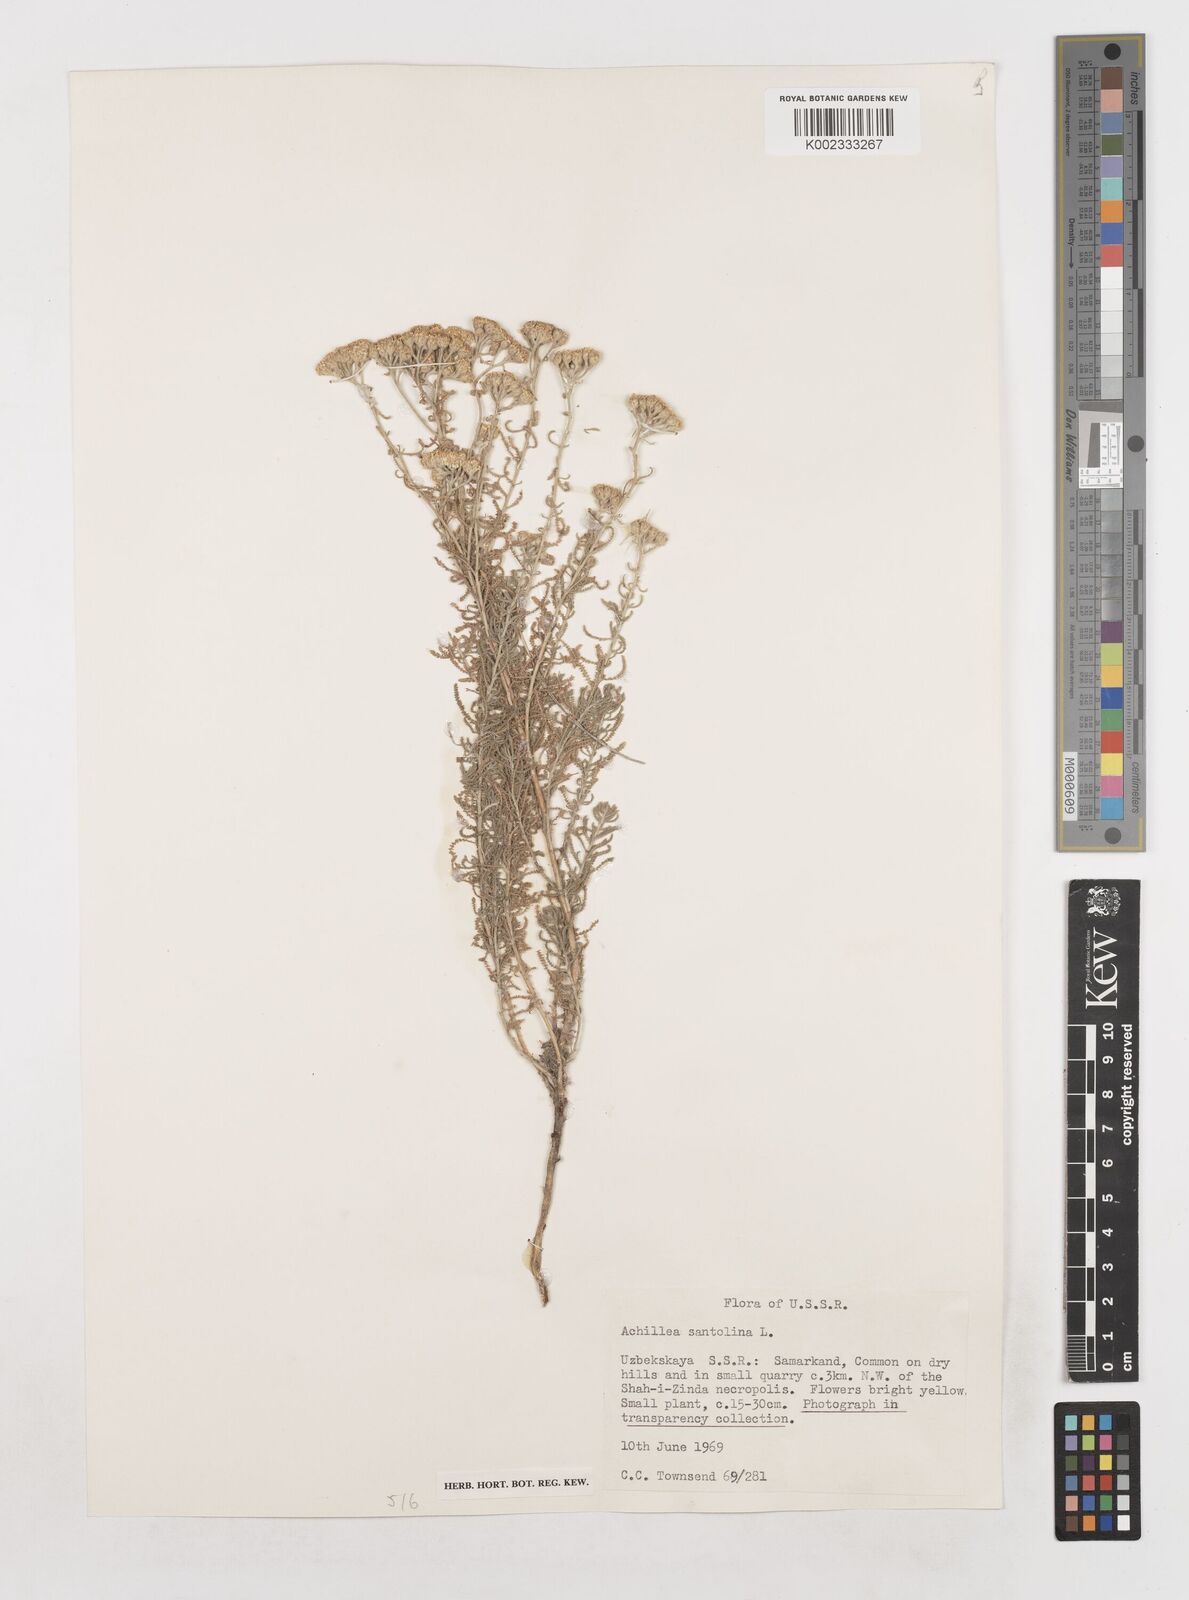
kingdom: Plantae
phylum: Tracheophyta
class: Magnoliopsida
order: Asterales
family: Asteraceae
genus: Achillea
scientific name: Achillea tenuifolia
